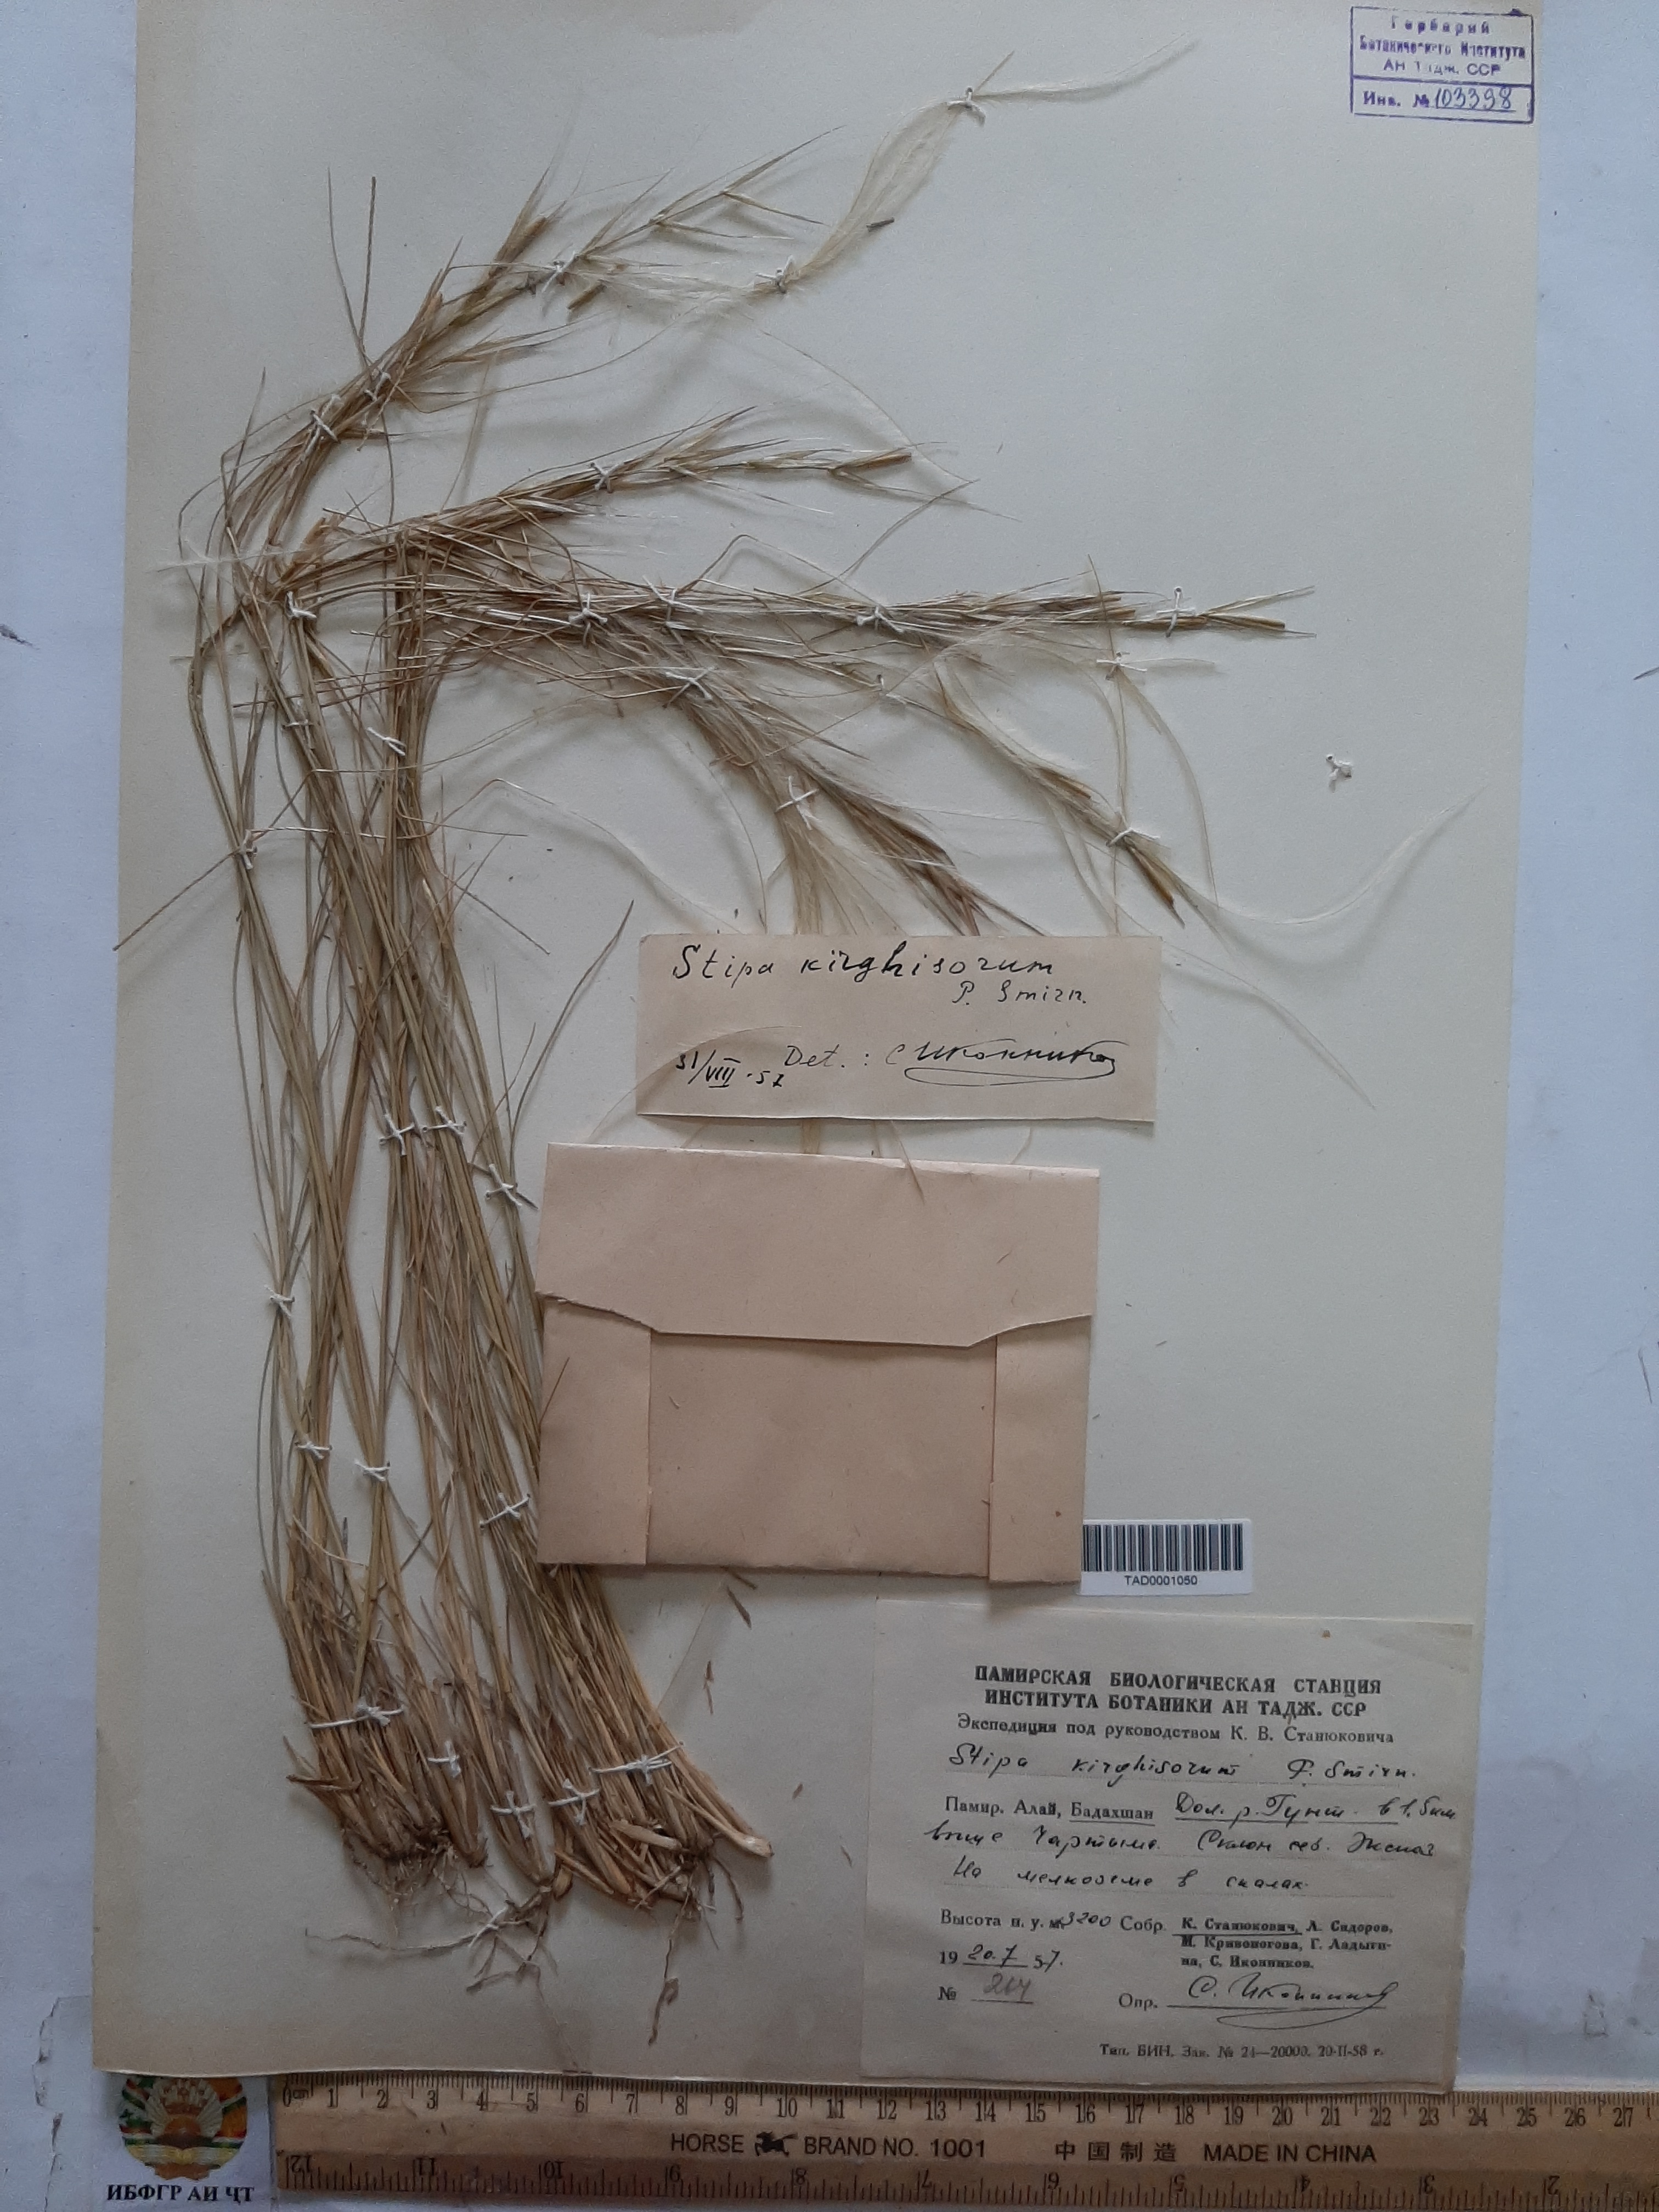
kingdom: Plantae
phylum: Tracheophyta
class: Liliopsida
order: Poales
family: Poaceae
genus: Stipa
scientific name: Stipa kirghisorum
